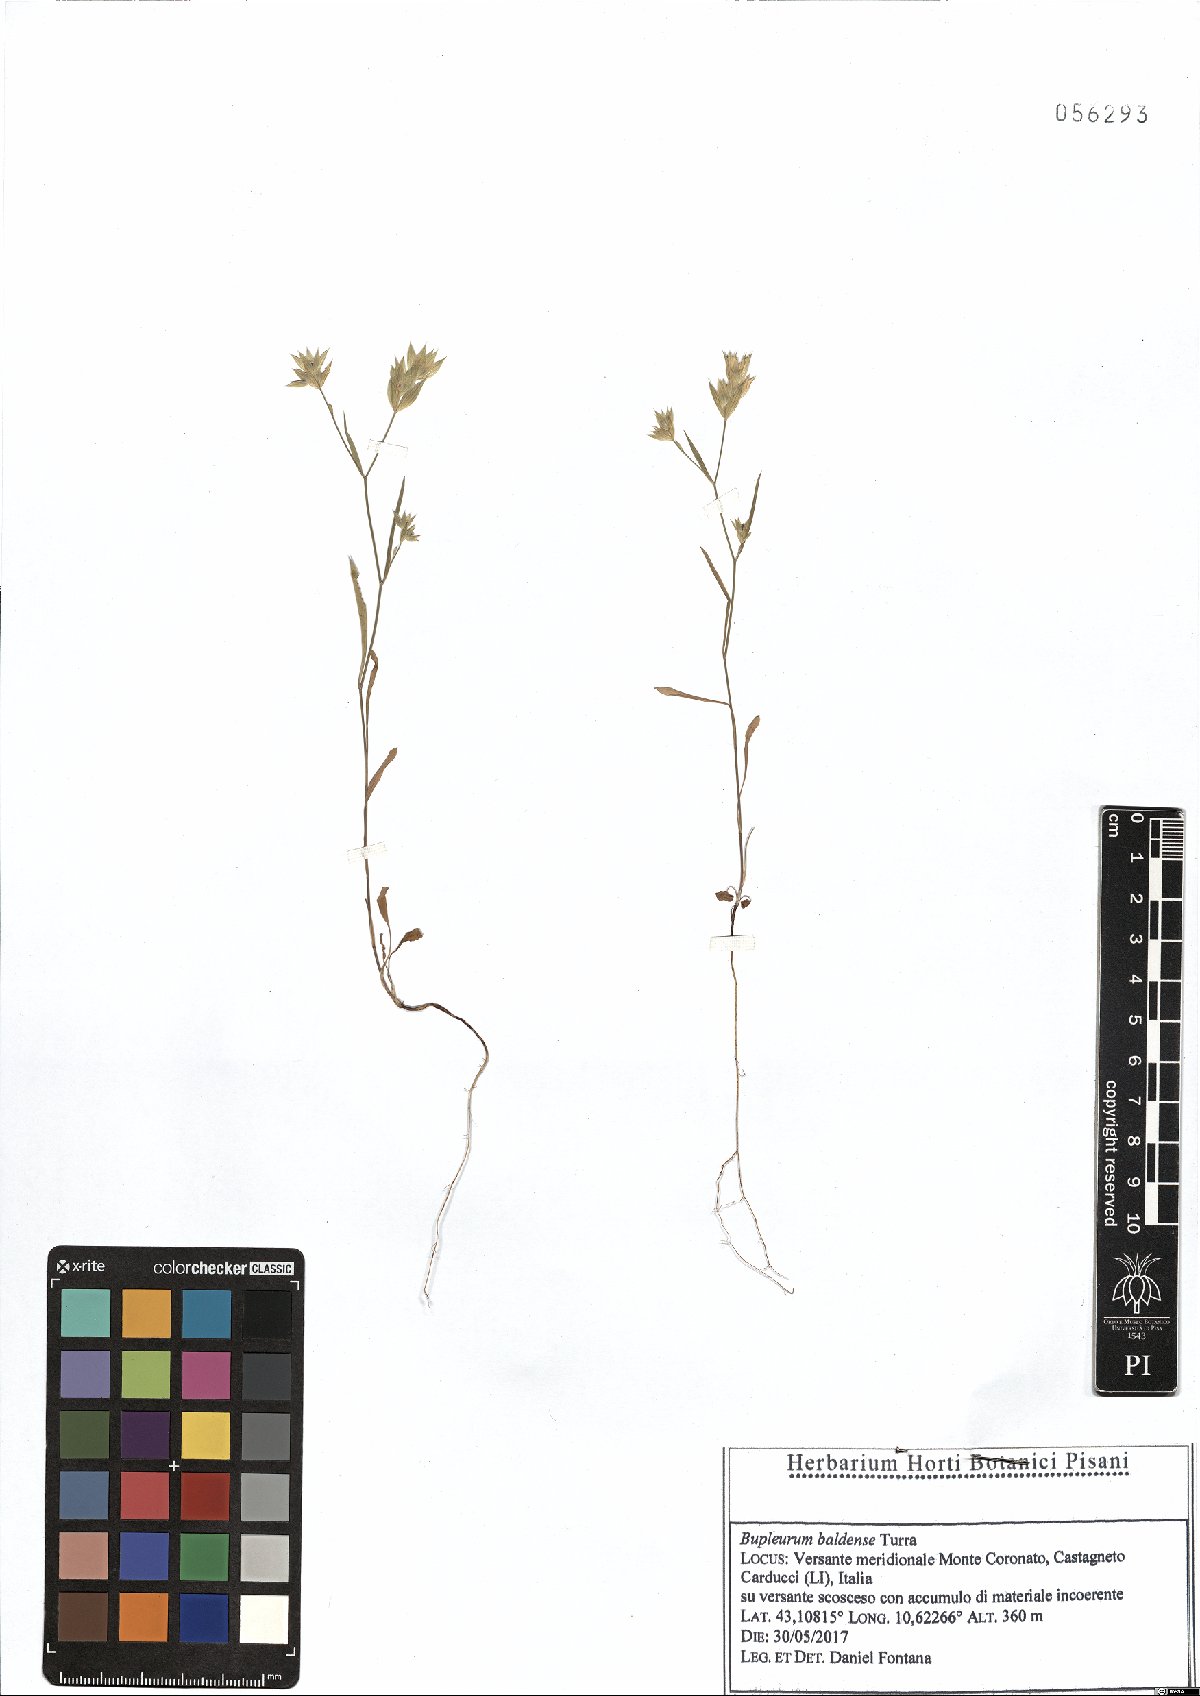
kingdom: Plantae
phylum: Tracheophyta
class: Magnoliopsida
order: Apiales
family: Apiaceae
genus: Bupleurum
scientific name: Bupleurum baldense
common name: Small hare's-ear
